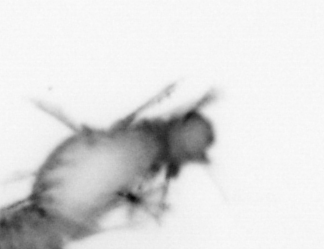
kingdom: Animalia
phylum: Annelida
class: Polychaeta
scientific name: Polychaeta
